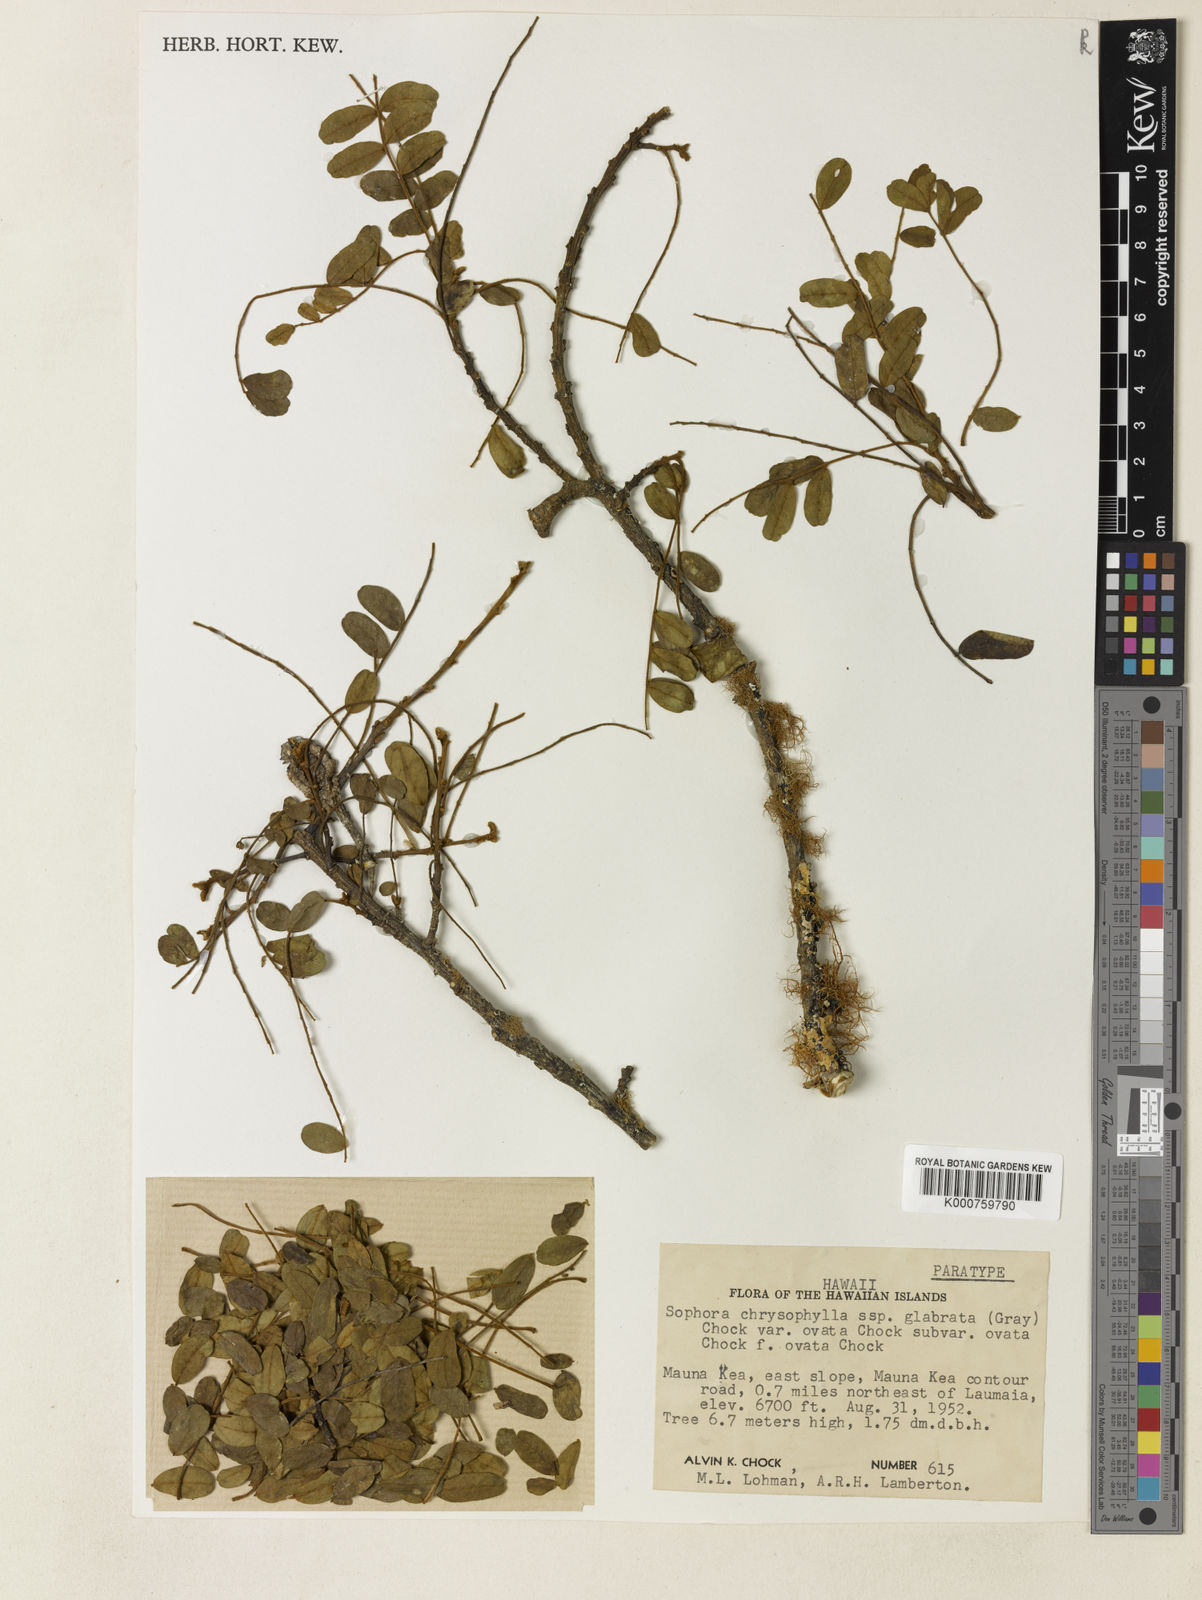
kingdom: Plantae
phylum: Tracheophyta
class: Magnoliopsida
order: Fabales
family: Fabaceae
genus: Sophora
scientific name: Sophora chrysophylla
